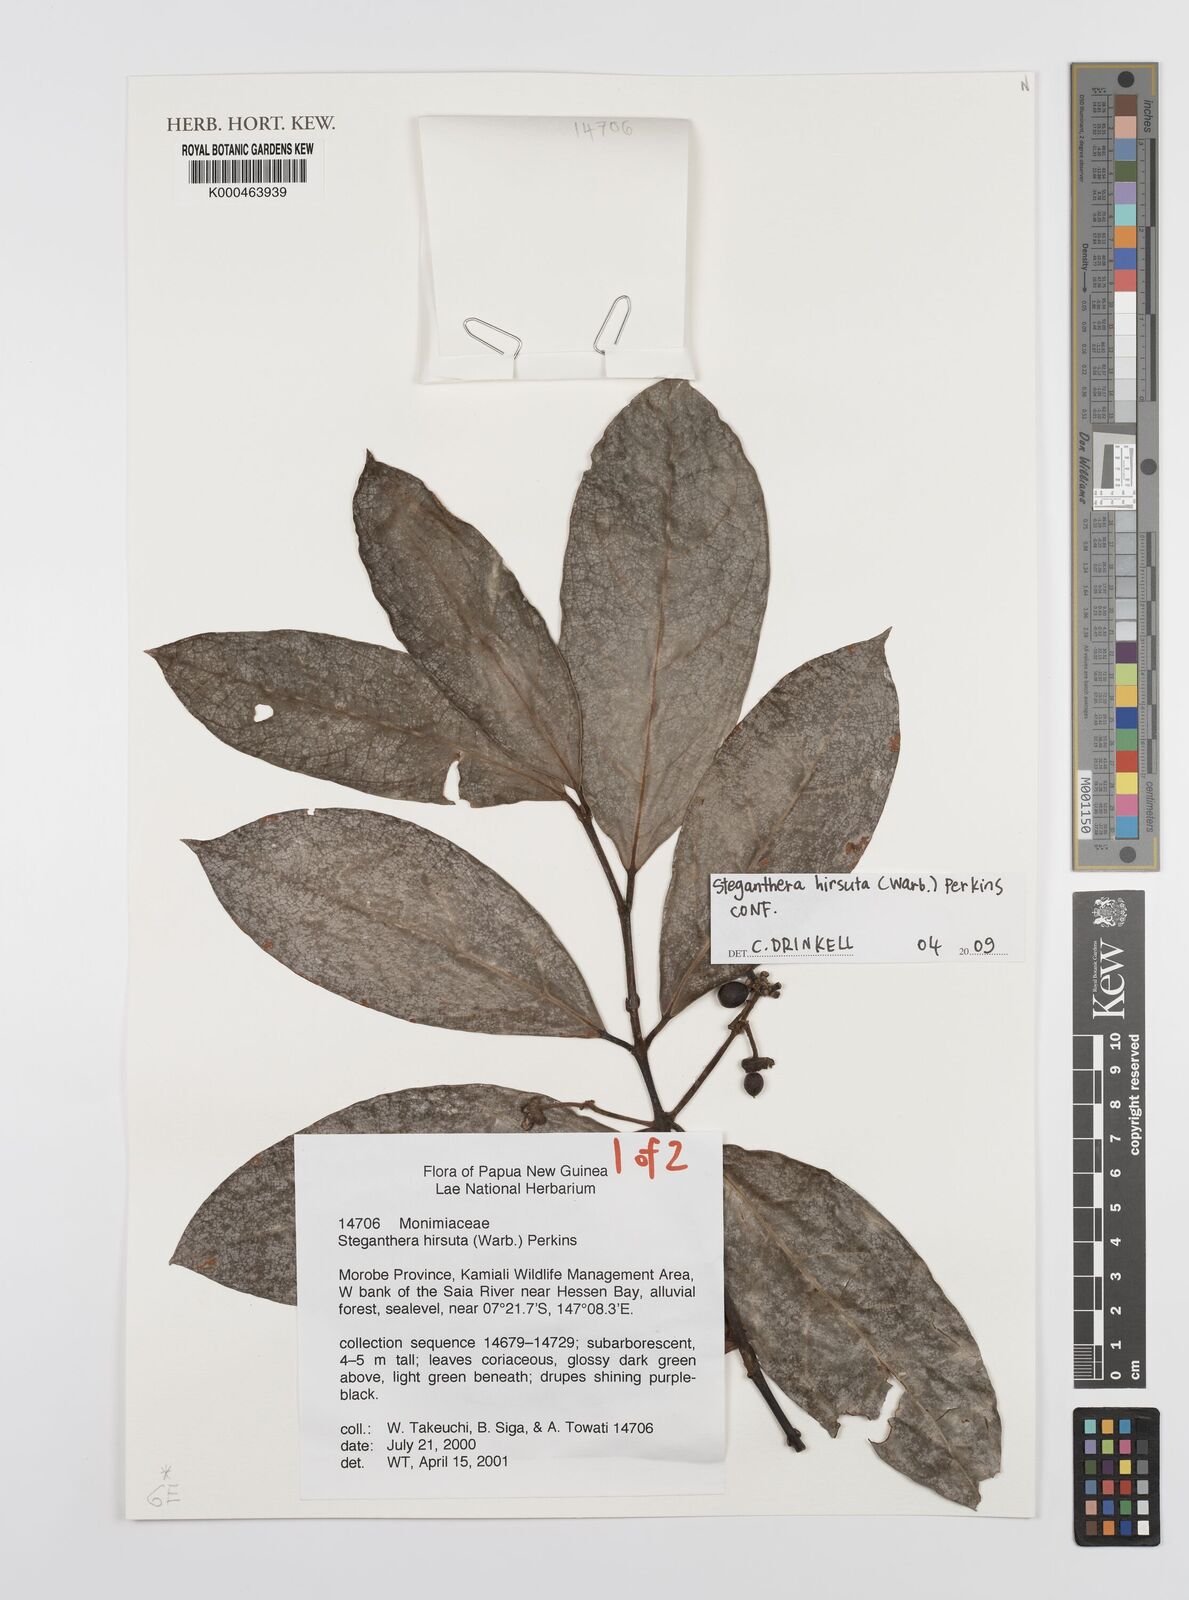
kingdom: Plantae
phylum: Tracheophyta
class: Magnoliopsida
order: Laurales
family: Monimiaceae
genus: Steganthera
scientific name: Steganthera hirsuta
